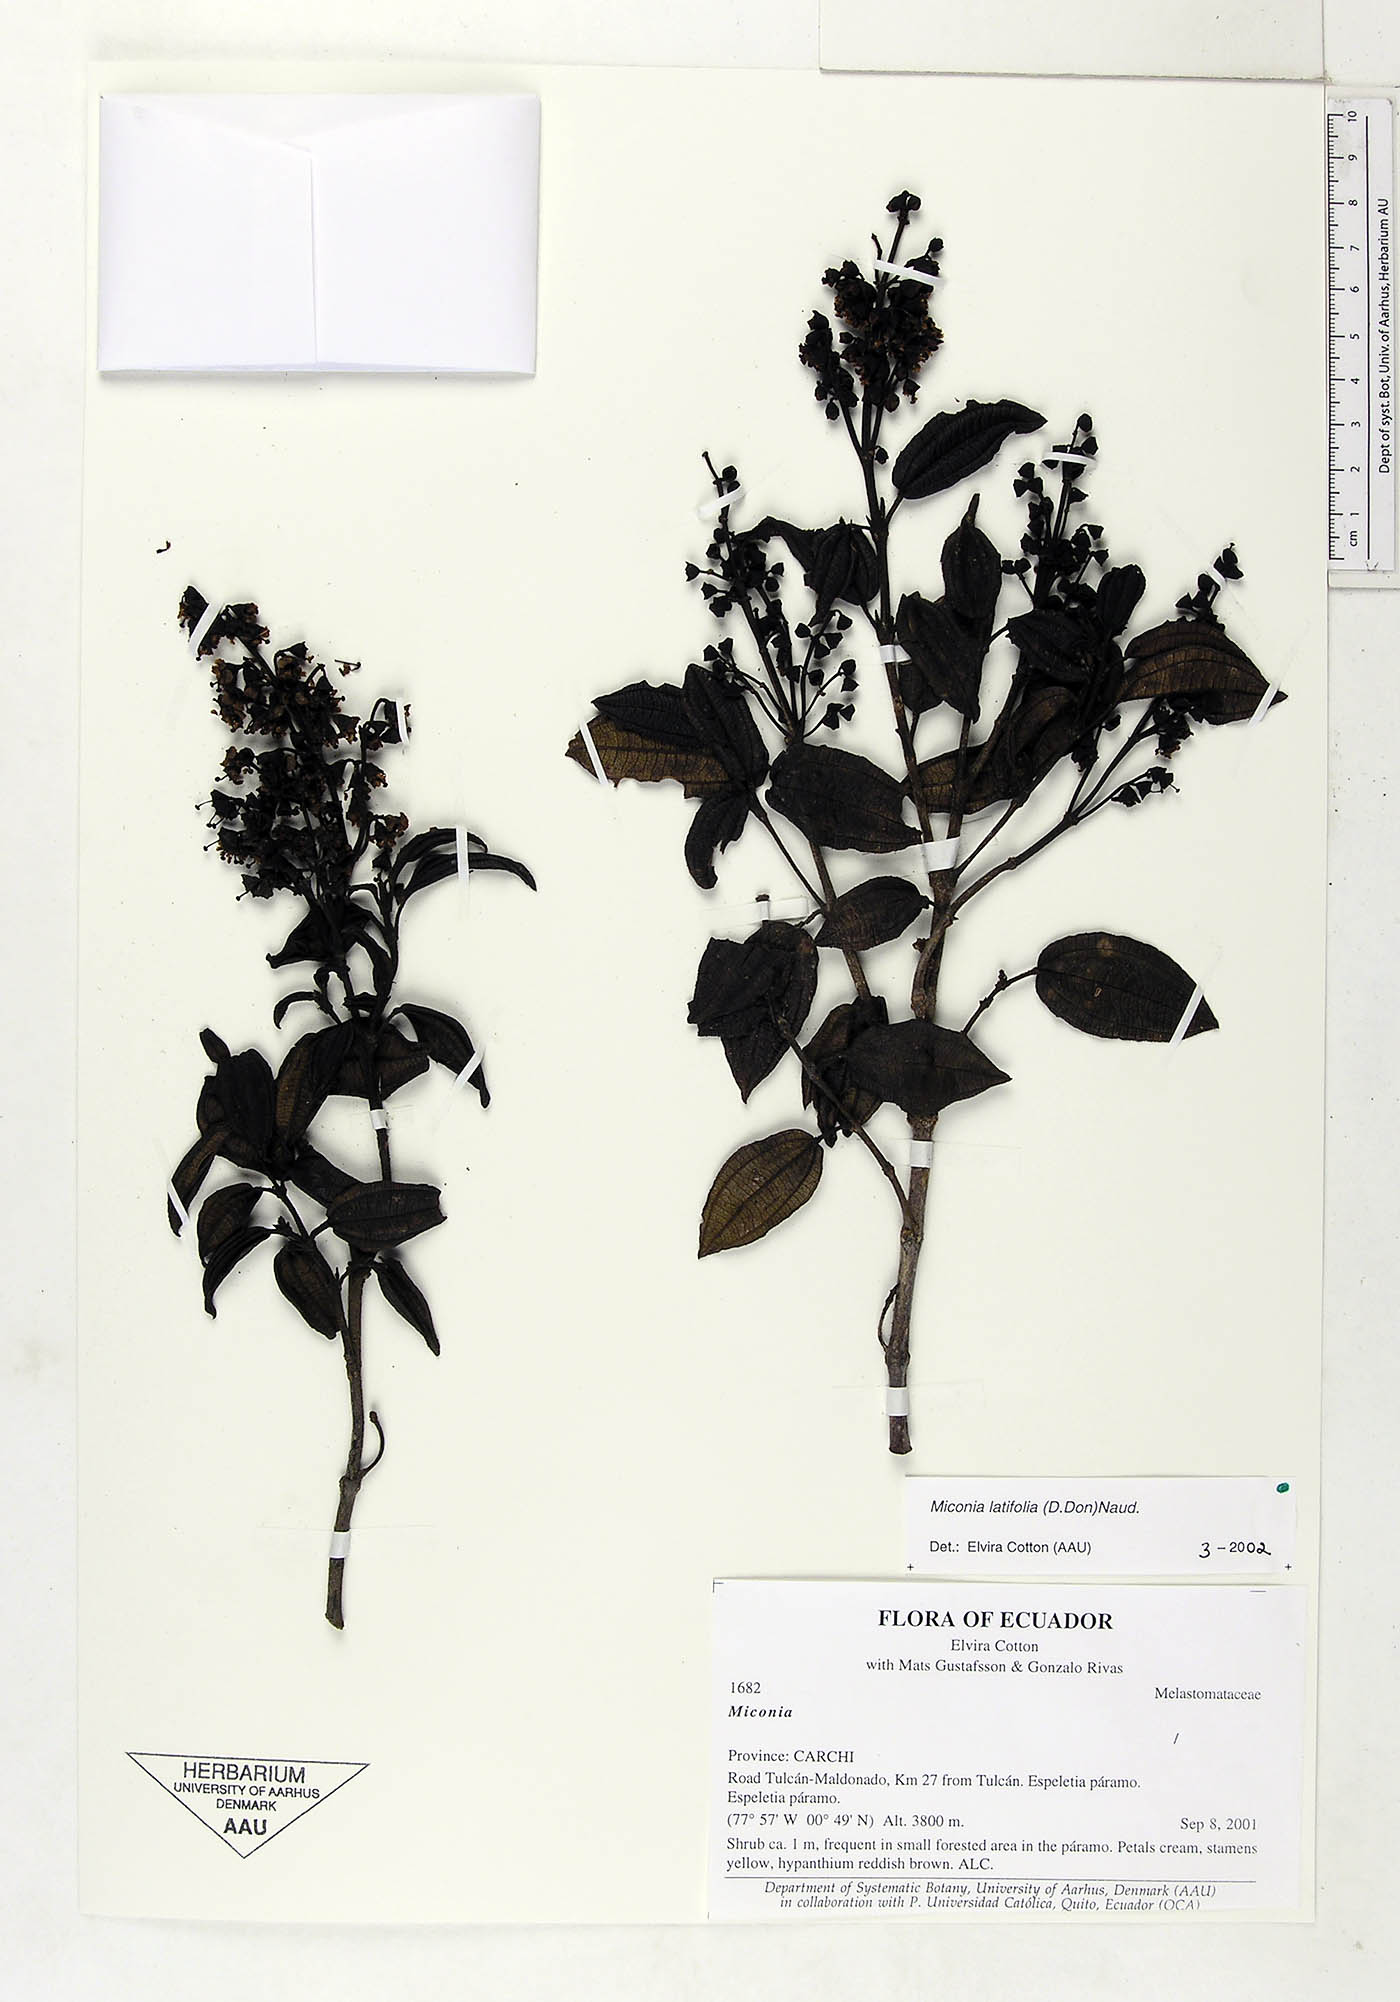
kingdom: Plantae
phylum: Tracheophyta
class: Magnoliopsida
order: Myrtales
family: Melastomataceae
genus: Miconia
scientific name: Miconia latifolia
